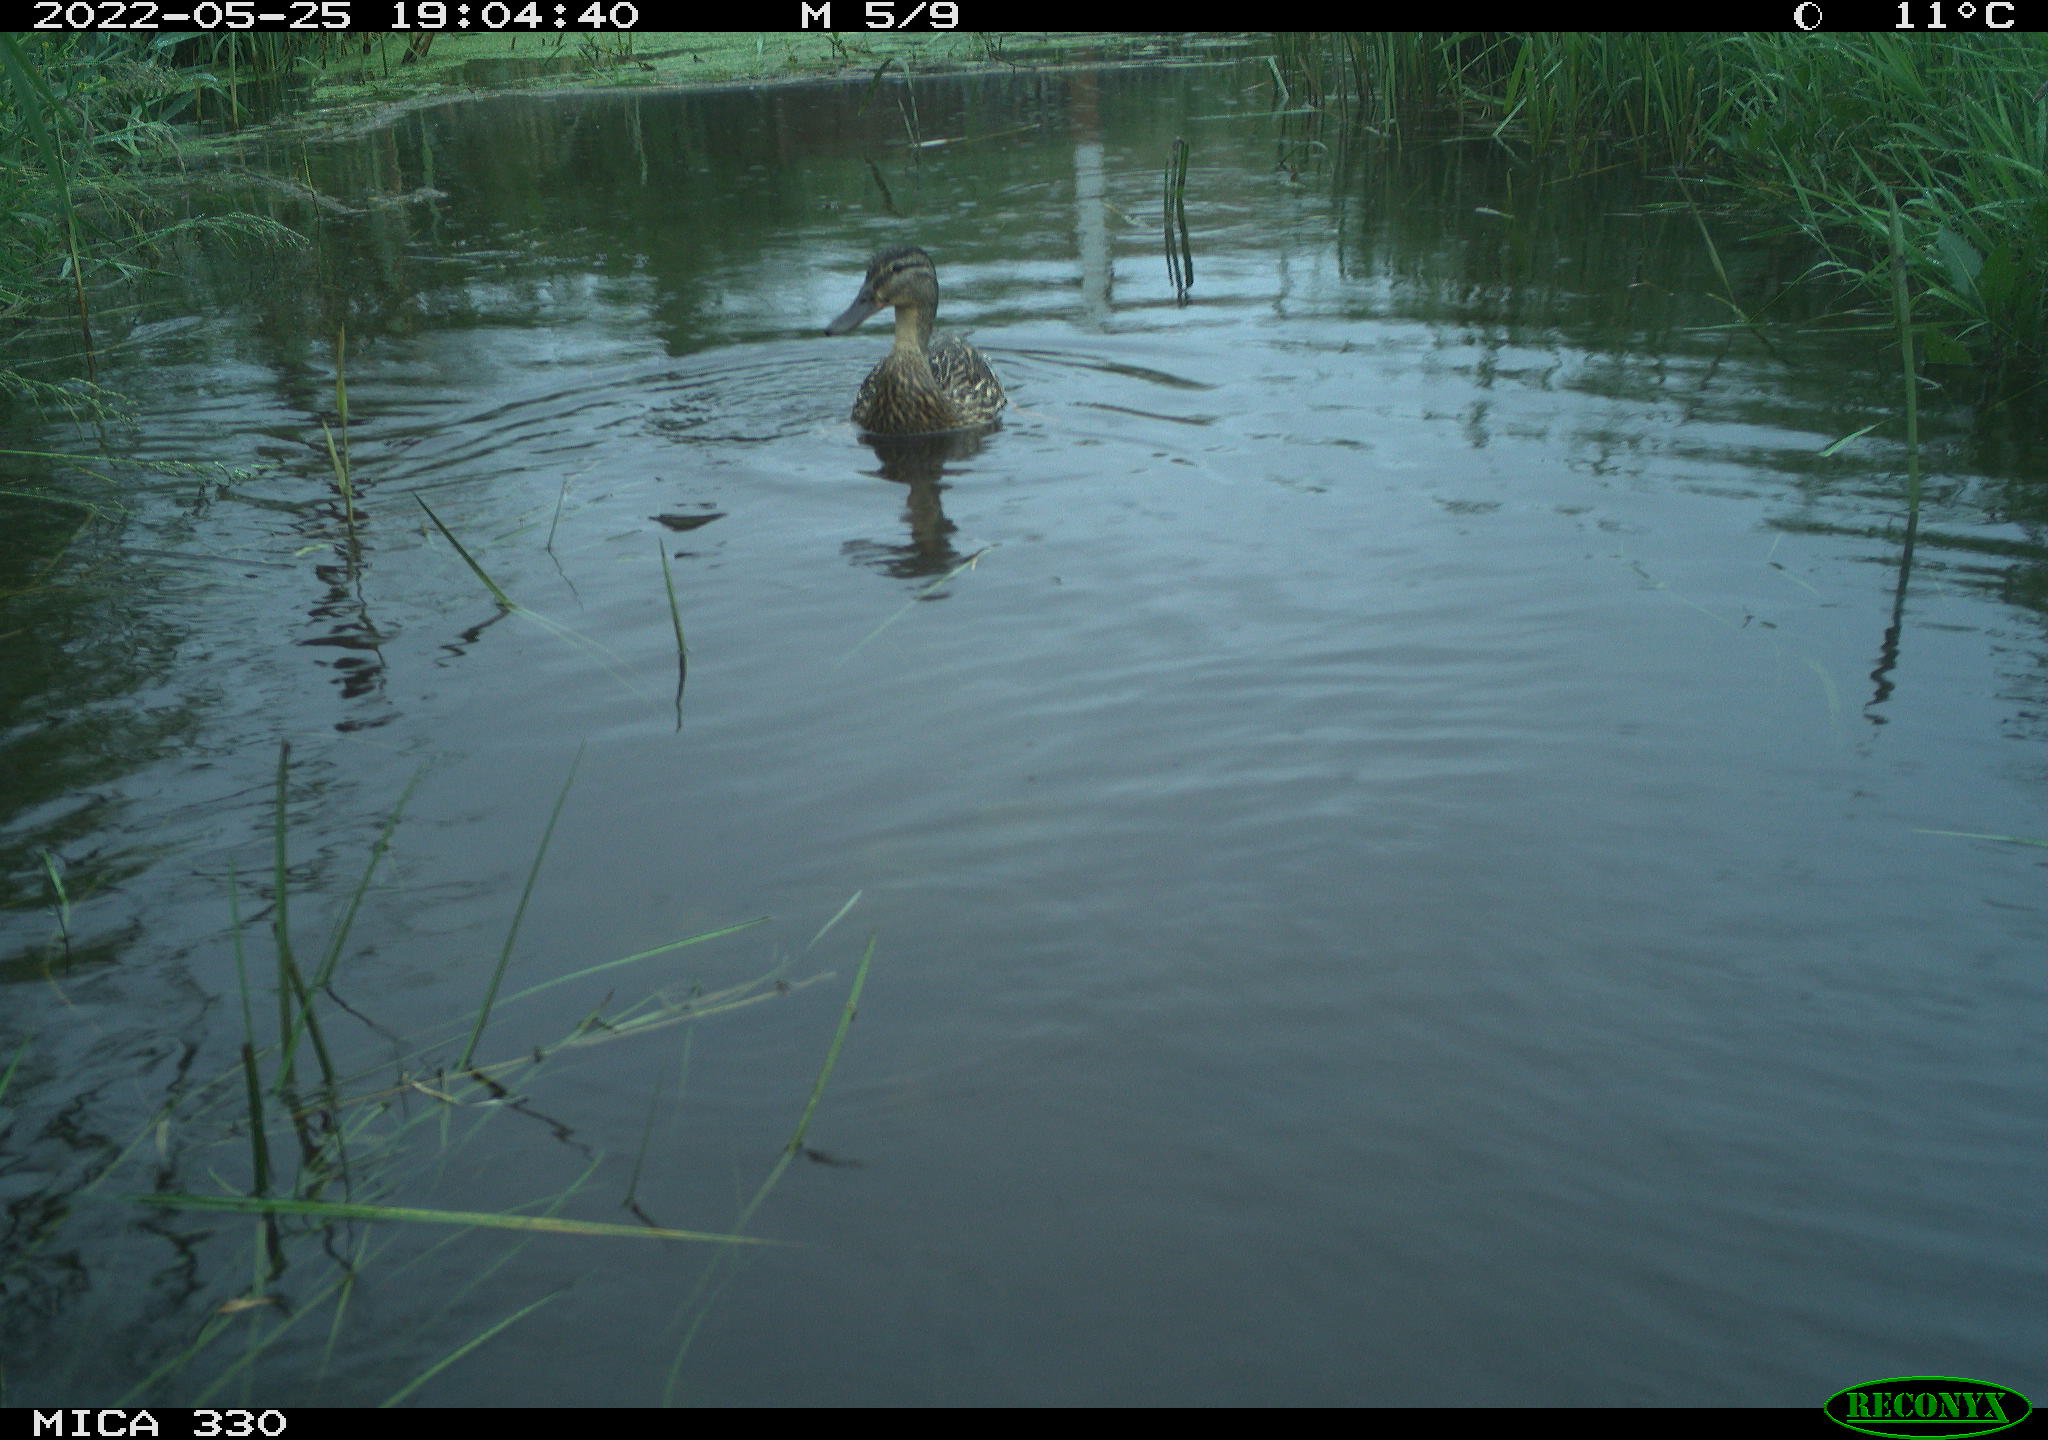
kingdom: Animalia
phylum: Chordata
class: Aves
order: Anseriformes
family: Anatidae
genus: Mareca
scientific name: Mareca strepera
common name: Gadwall
